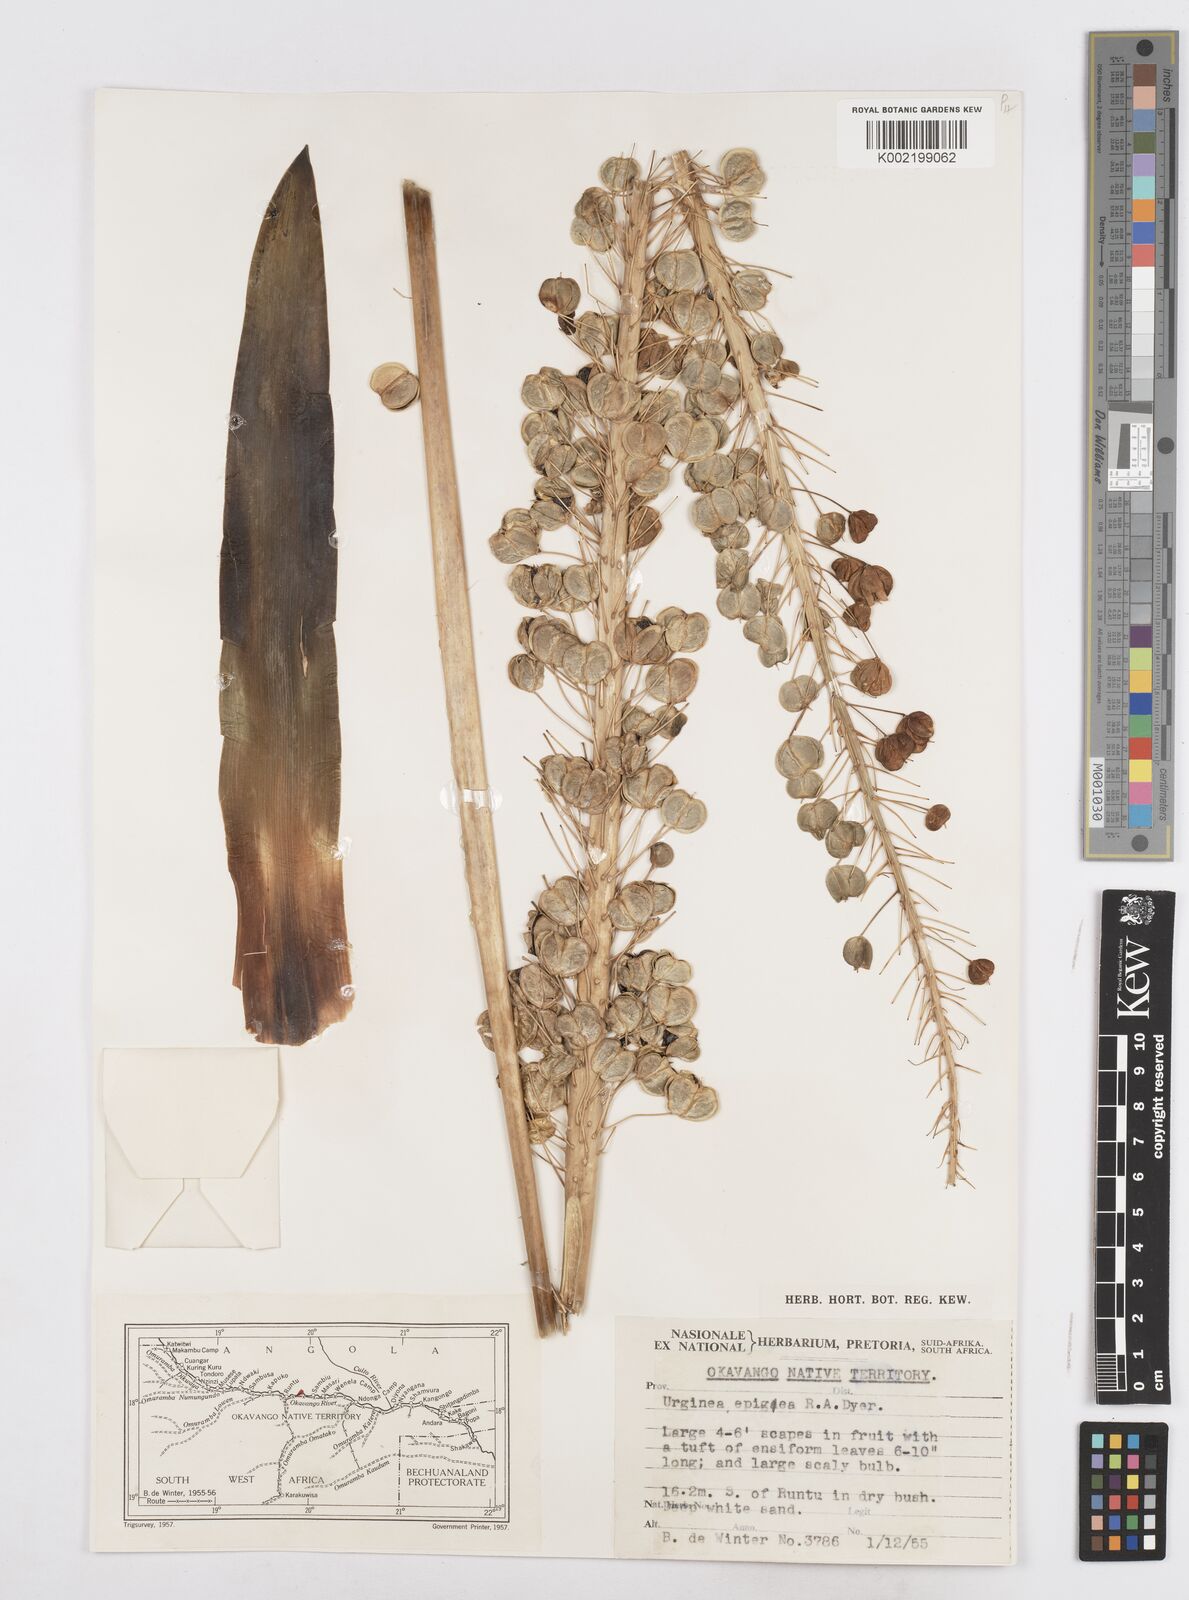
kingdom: Plantae
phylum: Tracheophyta
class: Liliopsida
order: Asparagales
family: Asparagaceae
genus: Drimia
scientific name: Drimia
